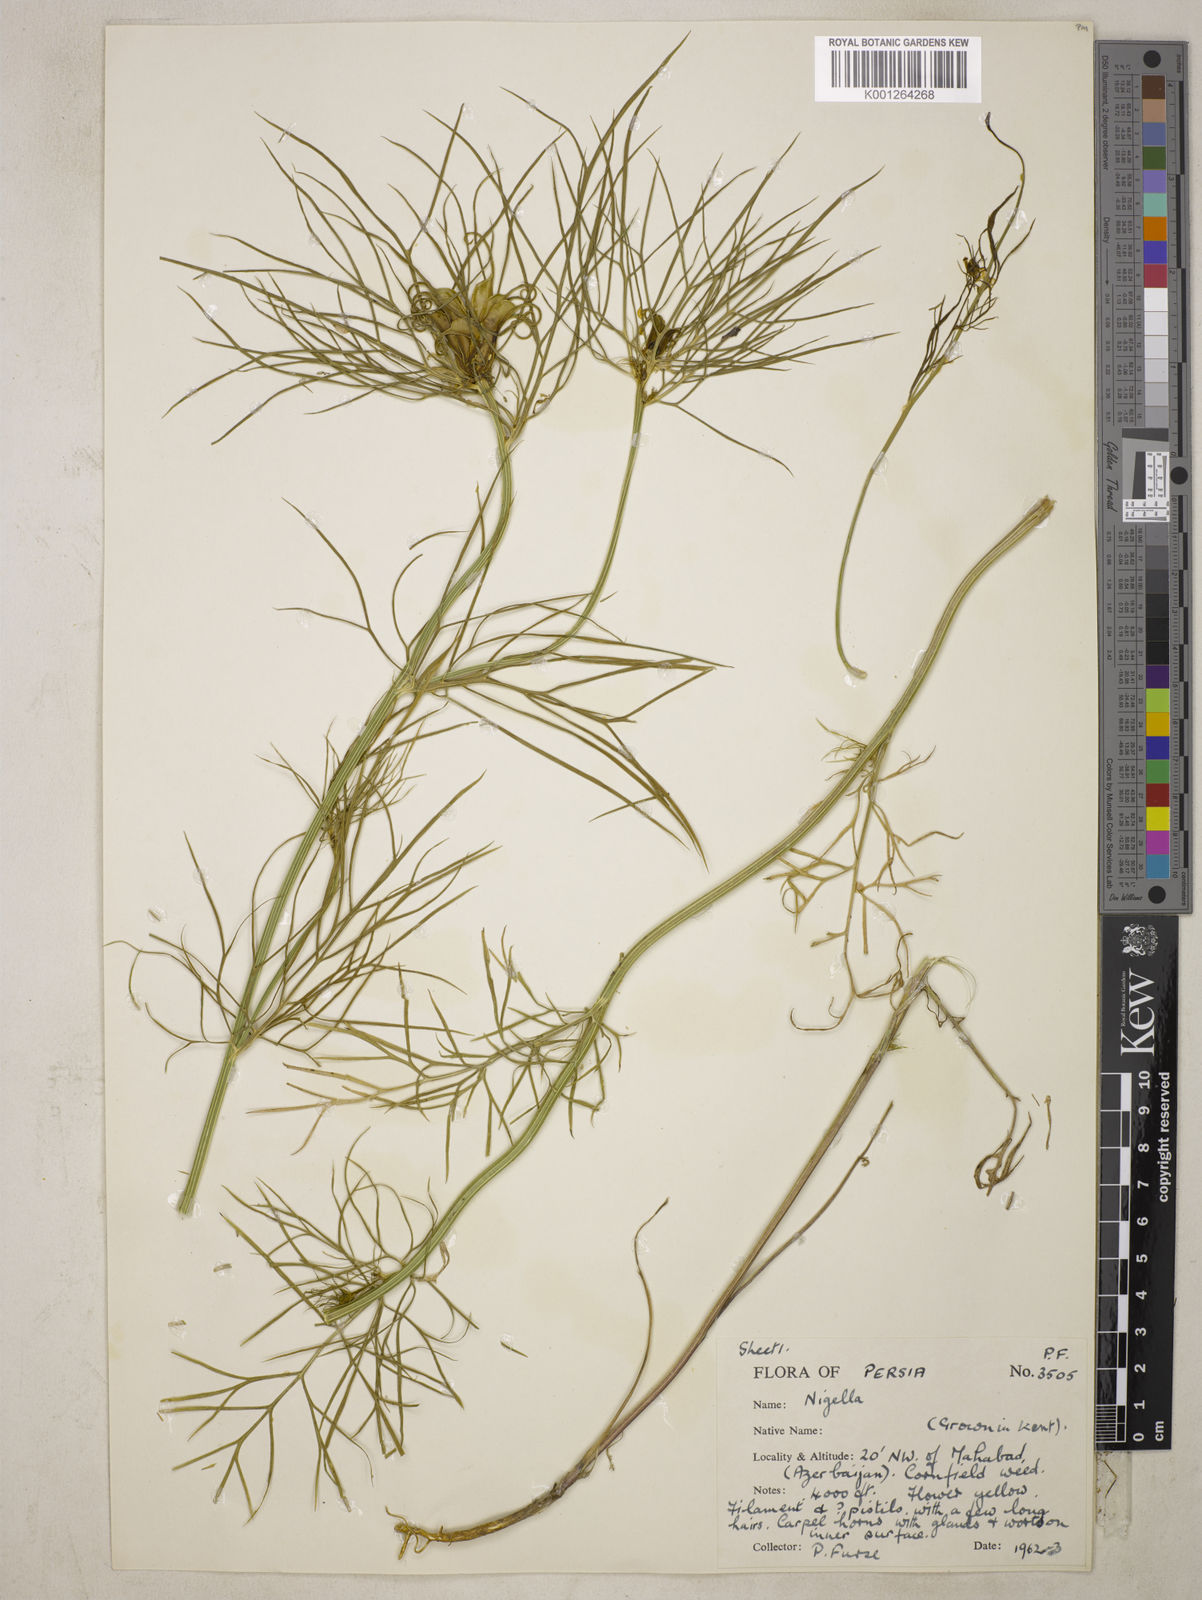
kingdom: Plantae
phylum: Tracheophyta
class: Magnoliopsida
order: Ranunculales
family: Ranunculaceae
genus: Nigella
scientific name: Nigella oxypetala
